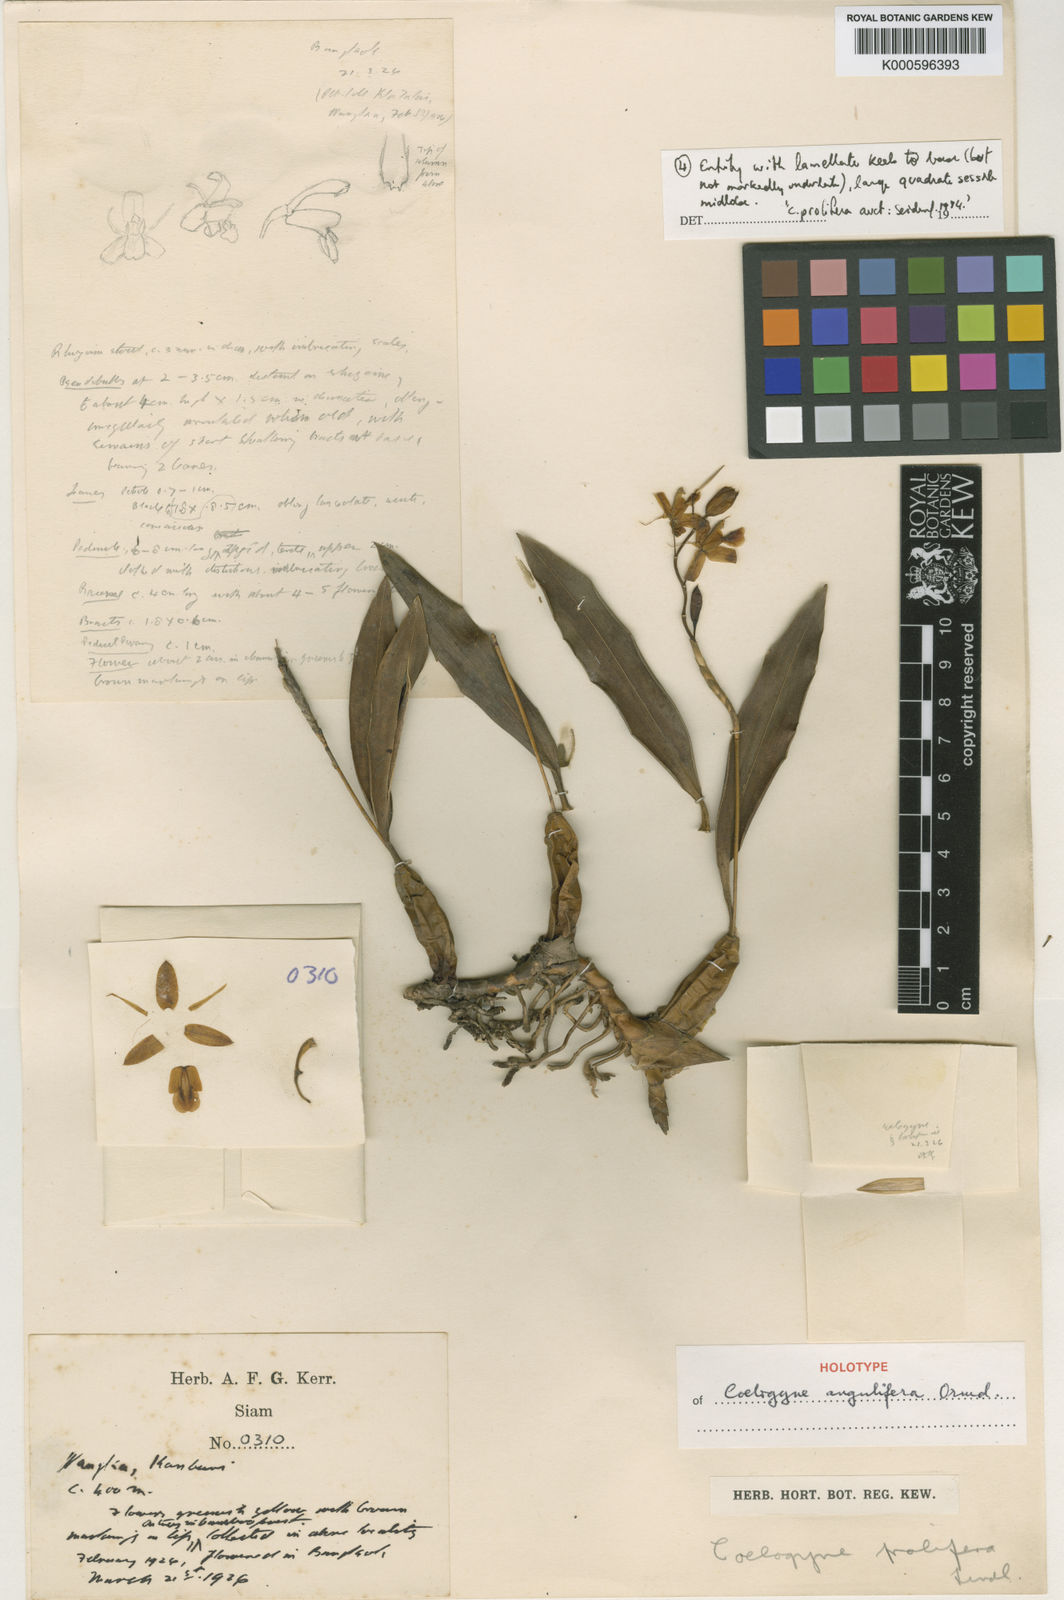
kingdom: Plantae
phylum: Tracheophyta
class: Liliopsida
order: Asparagales
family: Orchidaceae
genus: Coelogyne
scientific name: Coelogyne
